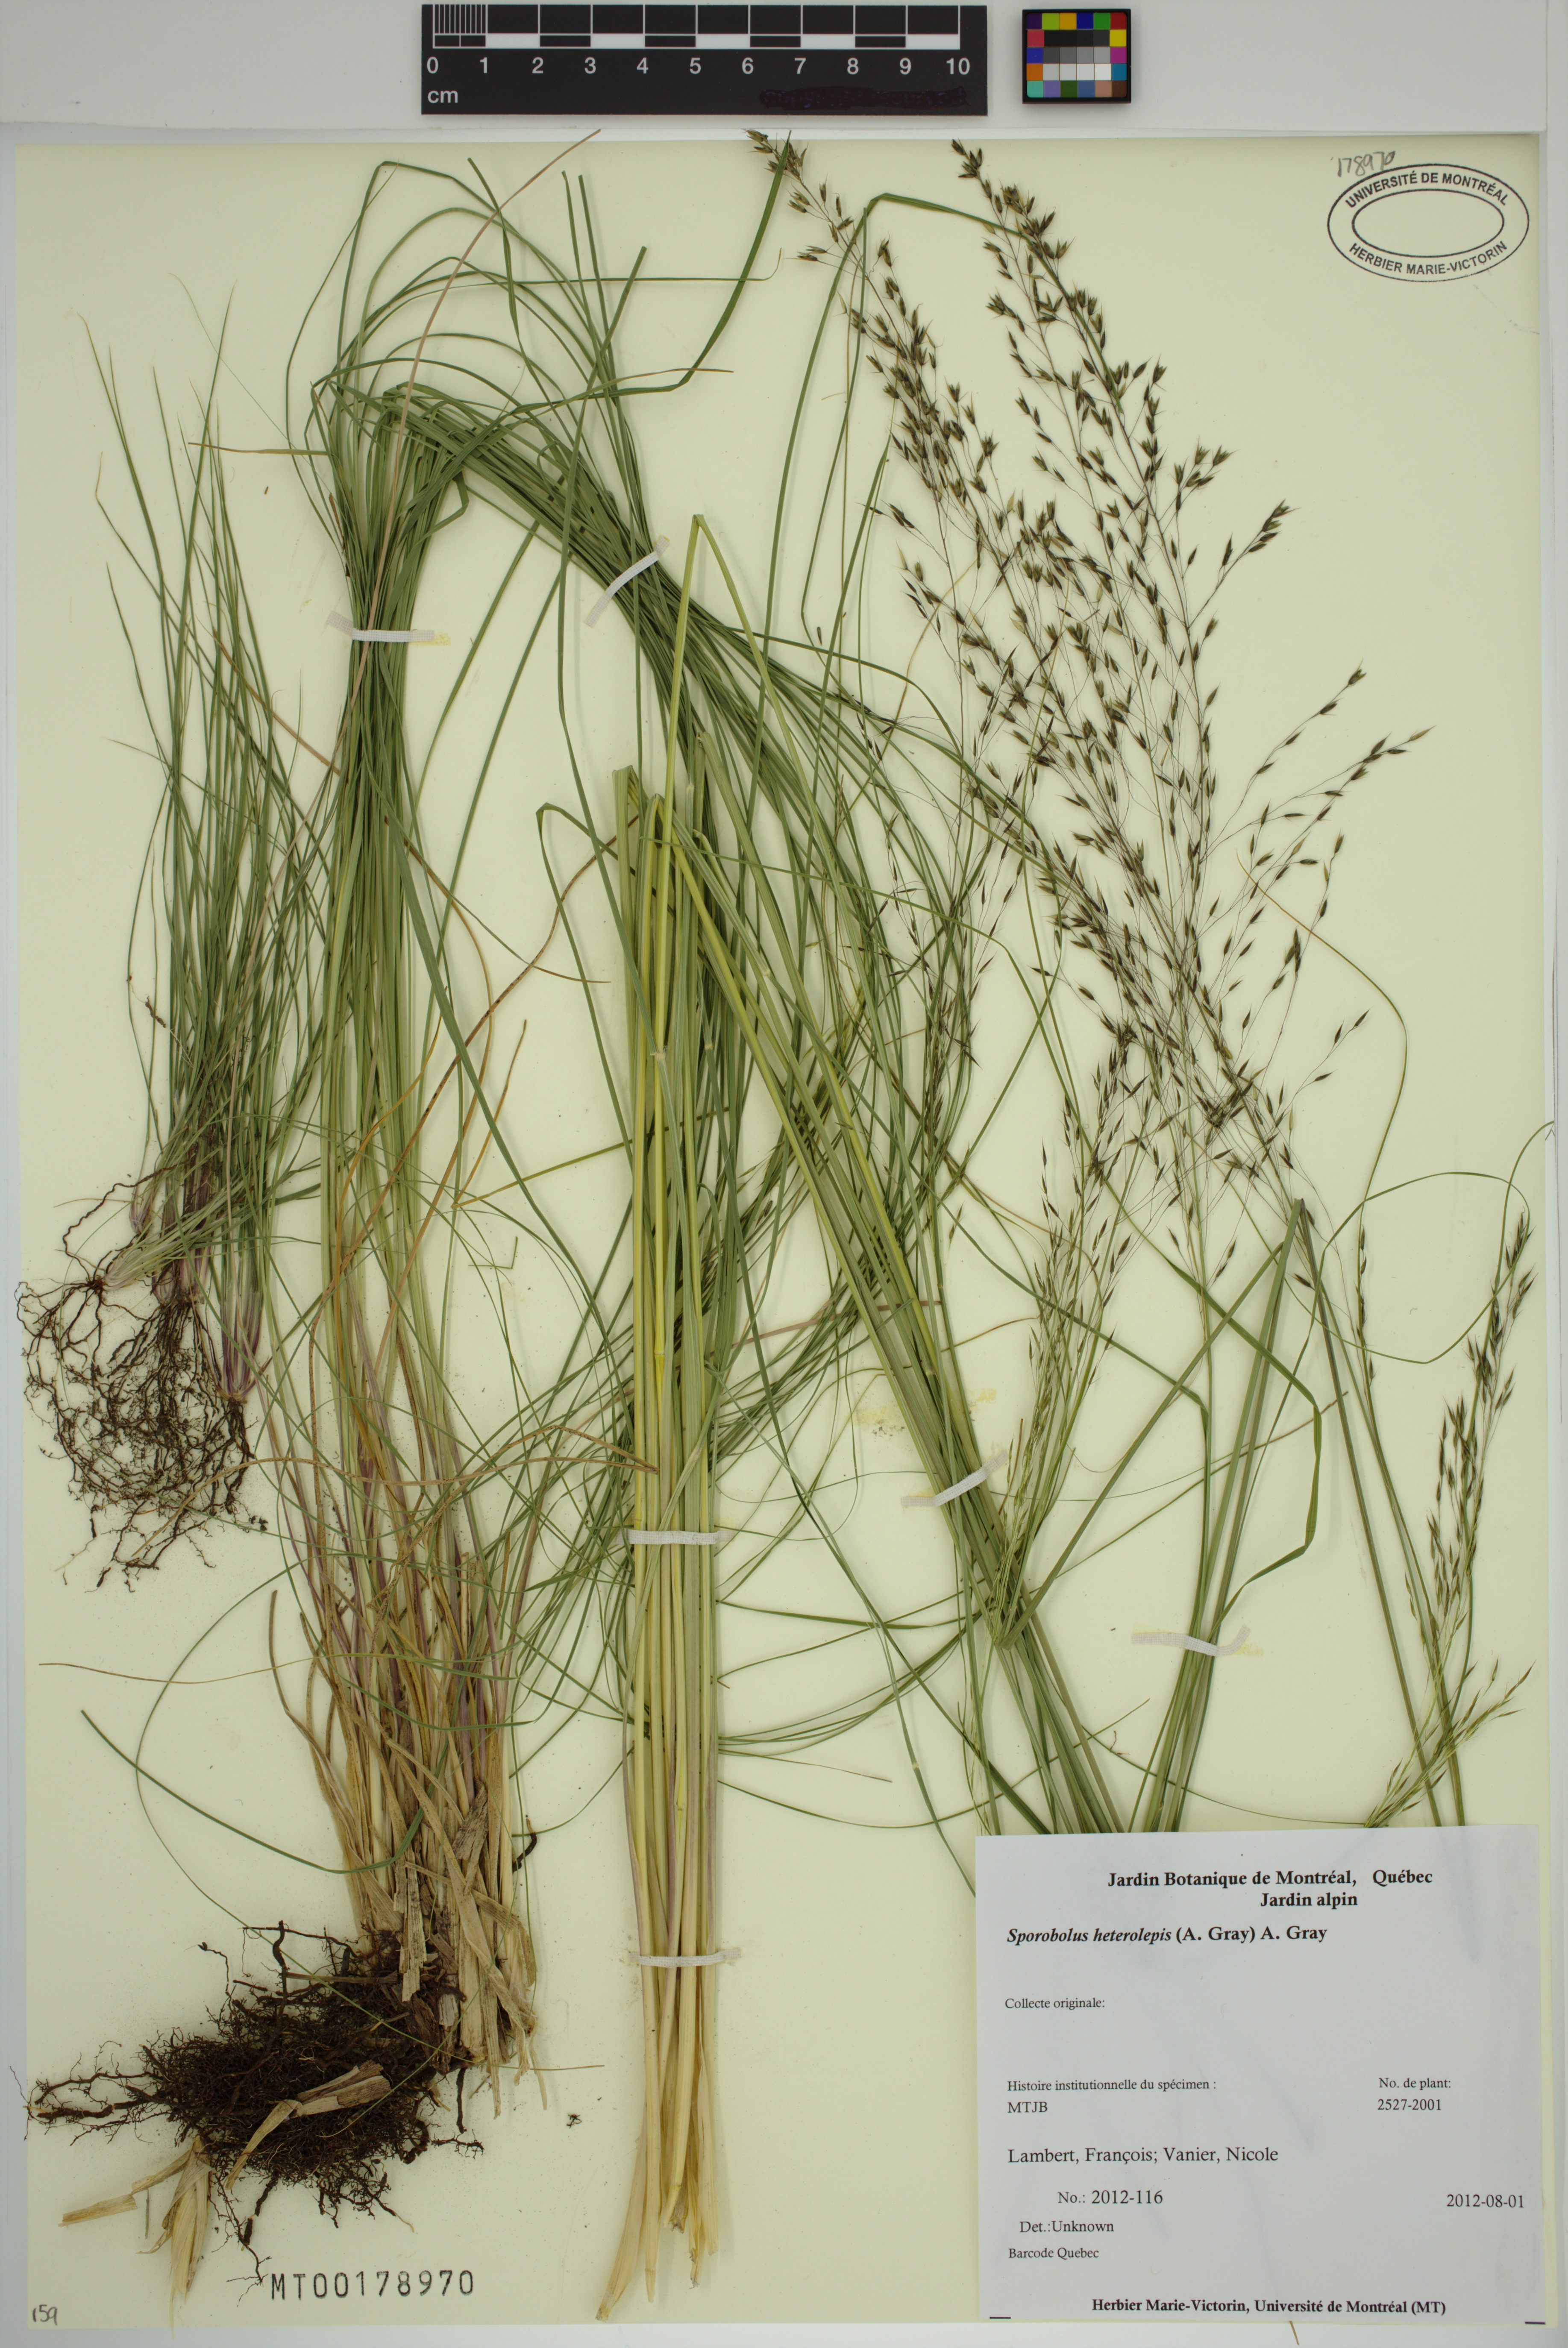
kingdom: Plantae
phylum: Tracheophyta
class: Liliopsida
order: Poales
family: Poaceae
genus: Sporobolus
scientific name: Sporobolus heterolepis
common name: Prairie dropseed
